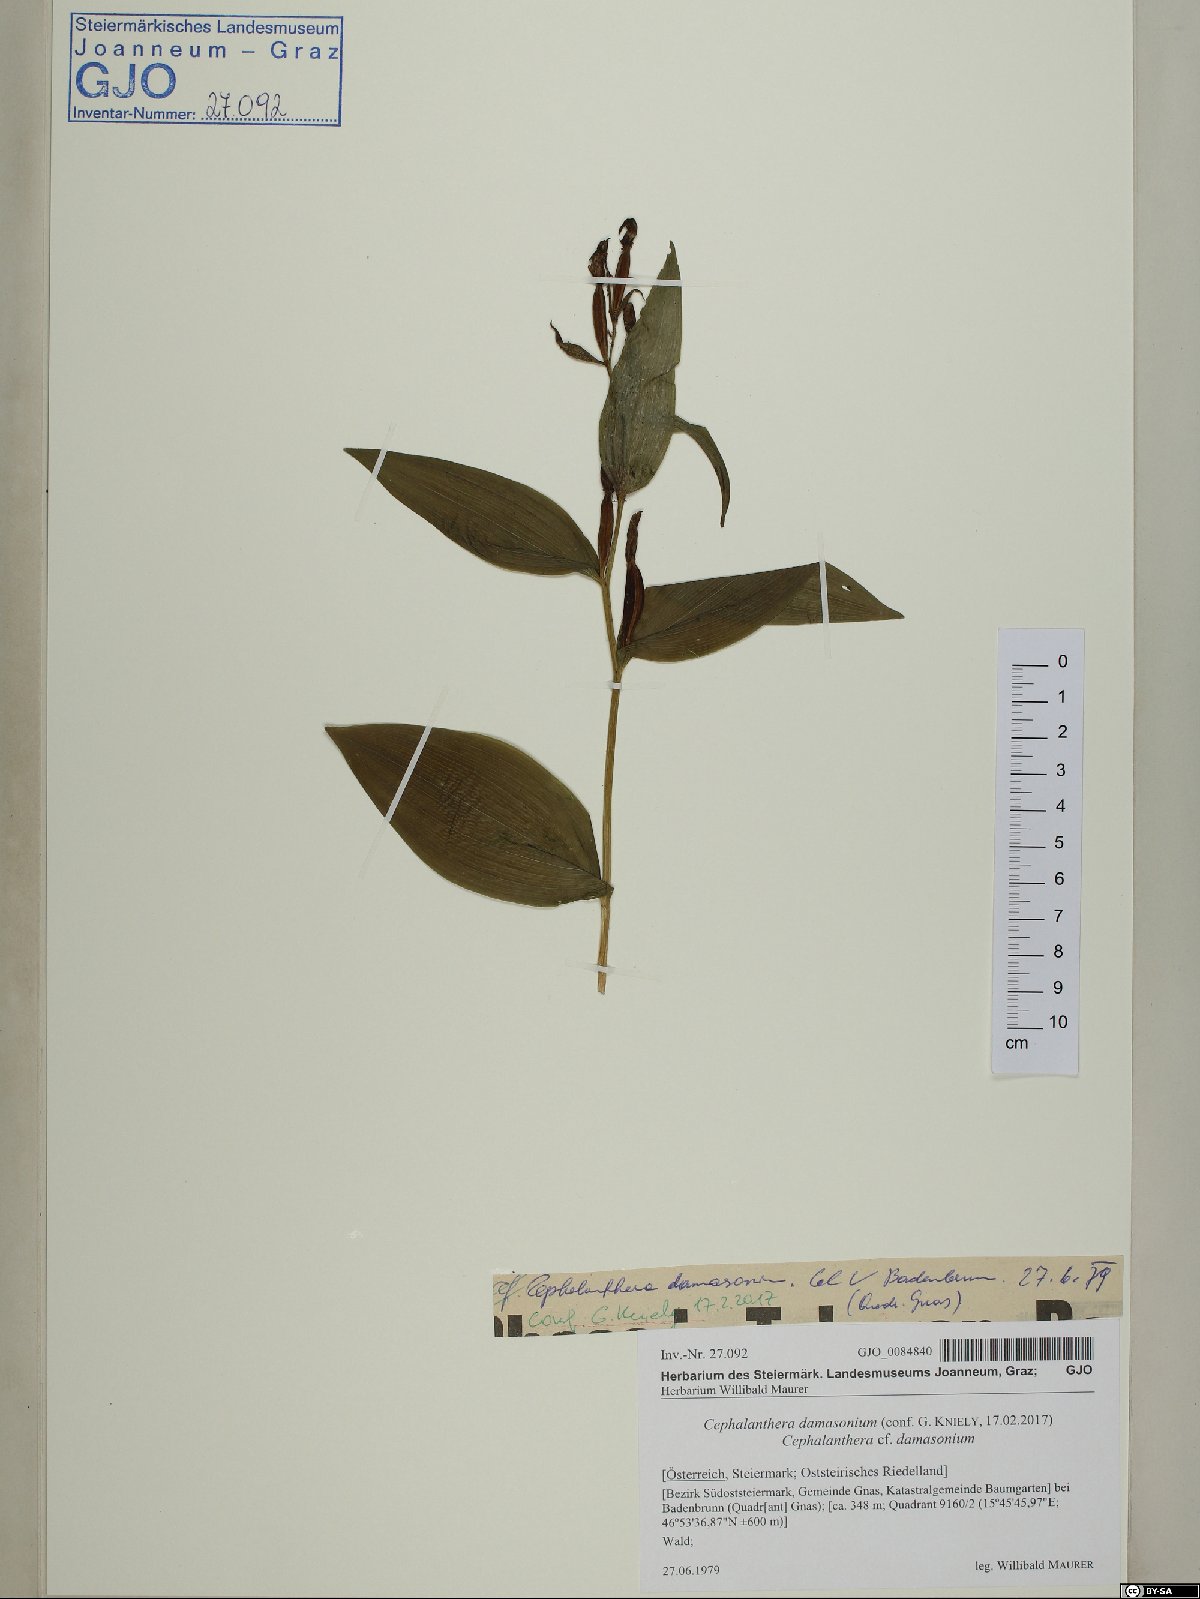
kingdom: Plantae
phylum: Tracheophyta
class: Liliopsida
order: Asparagales
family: Orchidaceae
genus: Cephalanthera
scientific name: Cephalanthera damasonium
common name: White helleborine
